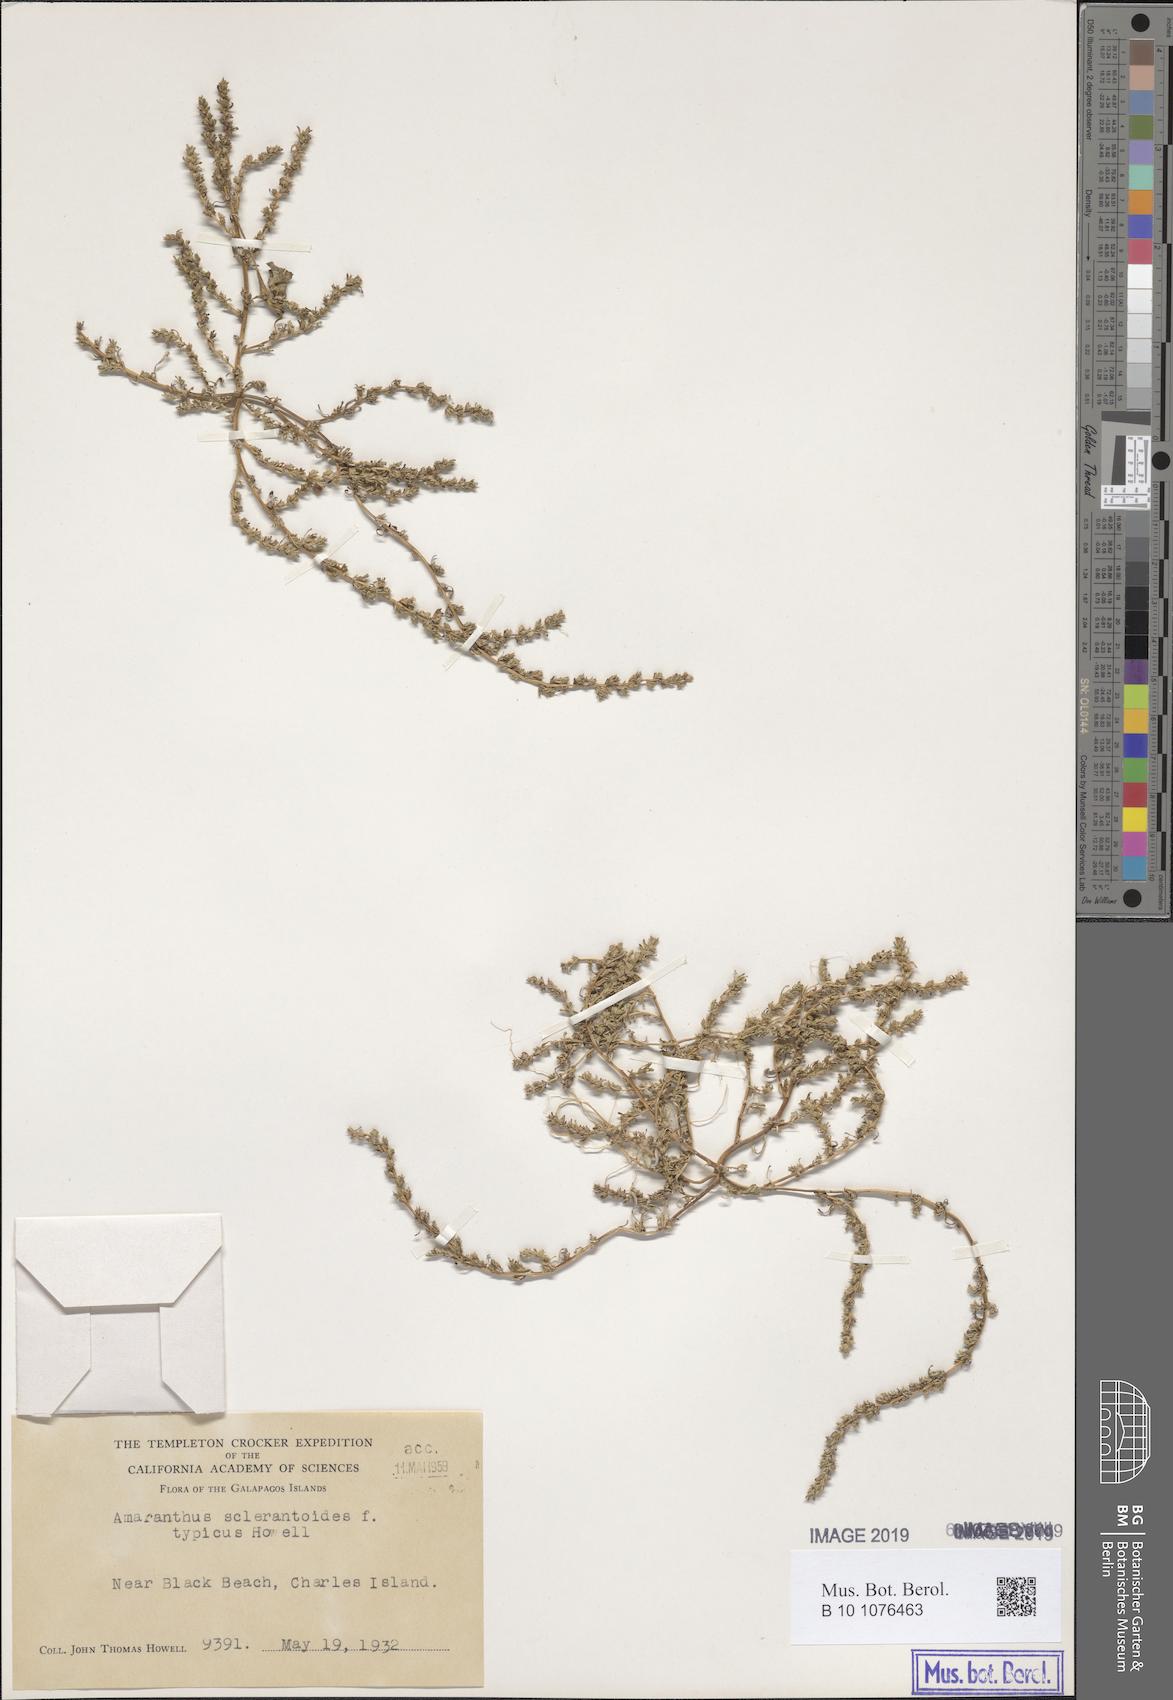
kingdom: Plantae
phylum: Tracheophyta
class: Magnoliopsida
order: Caryophyllales
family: Amaranthaceae
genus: Amaranthus
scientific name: Amaranthus sclerantoides
